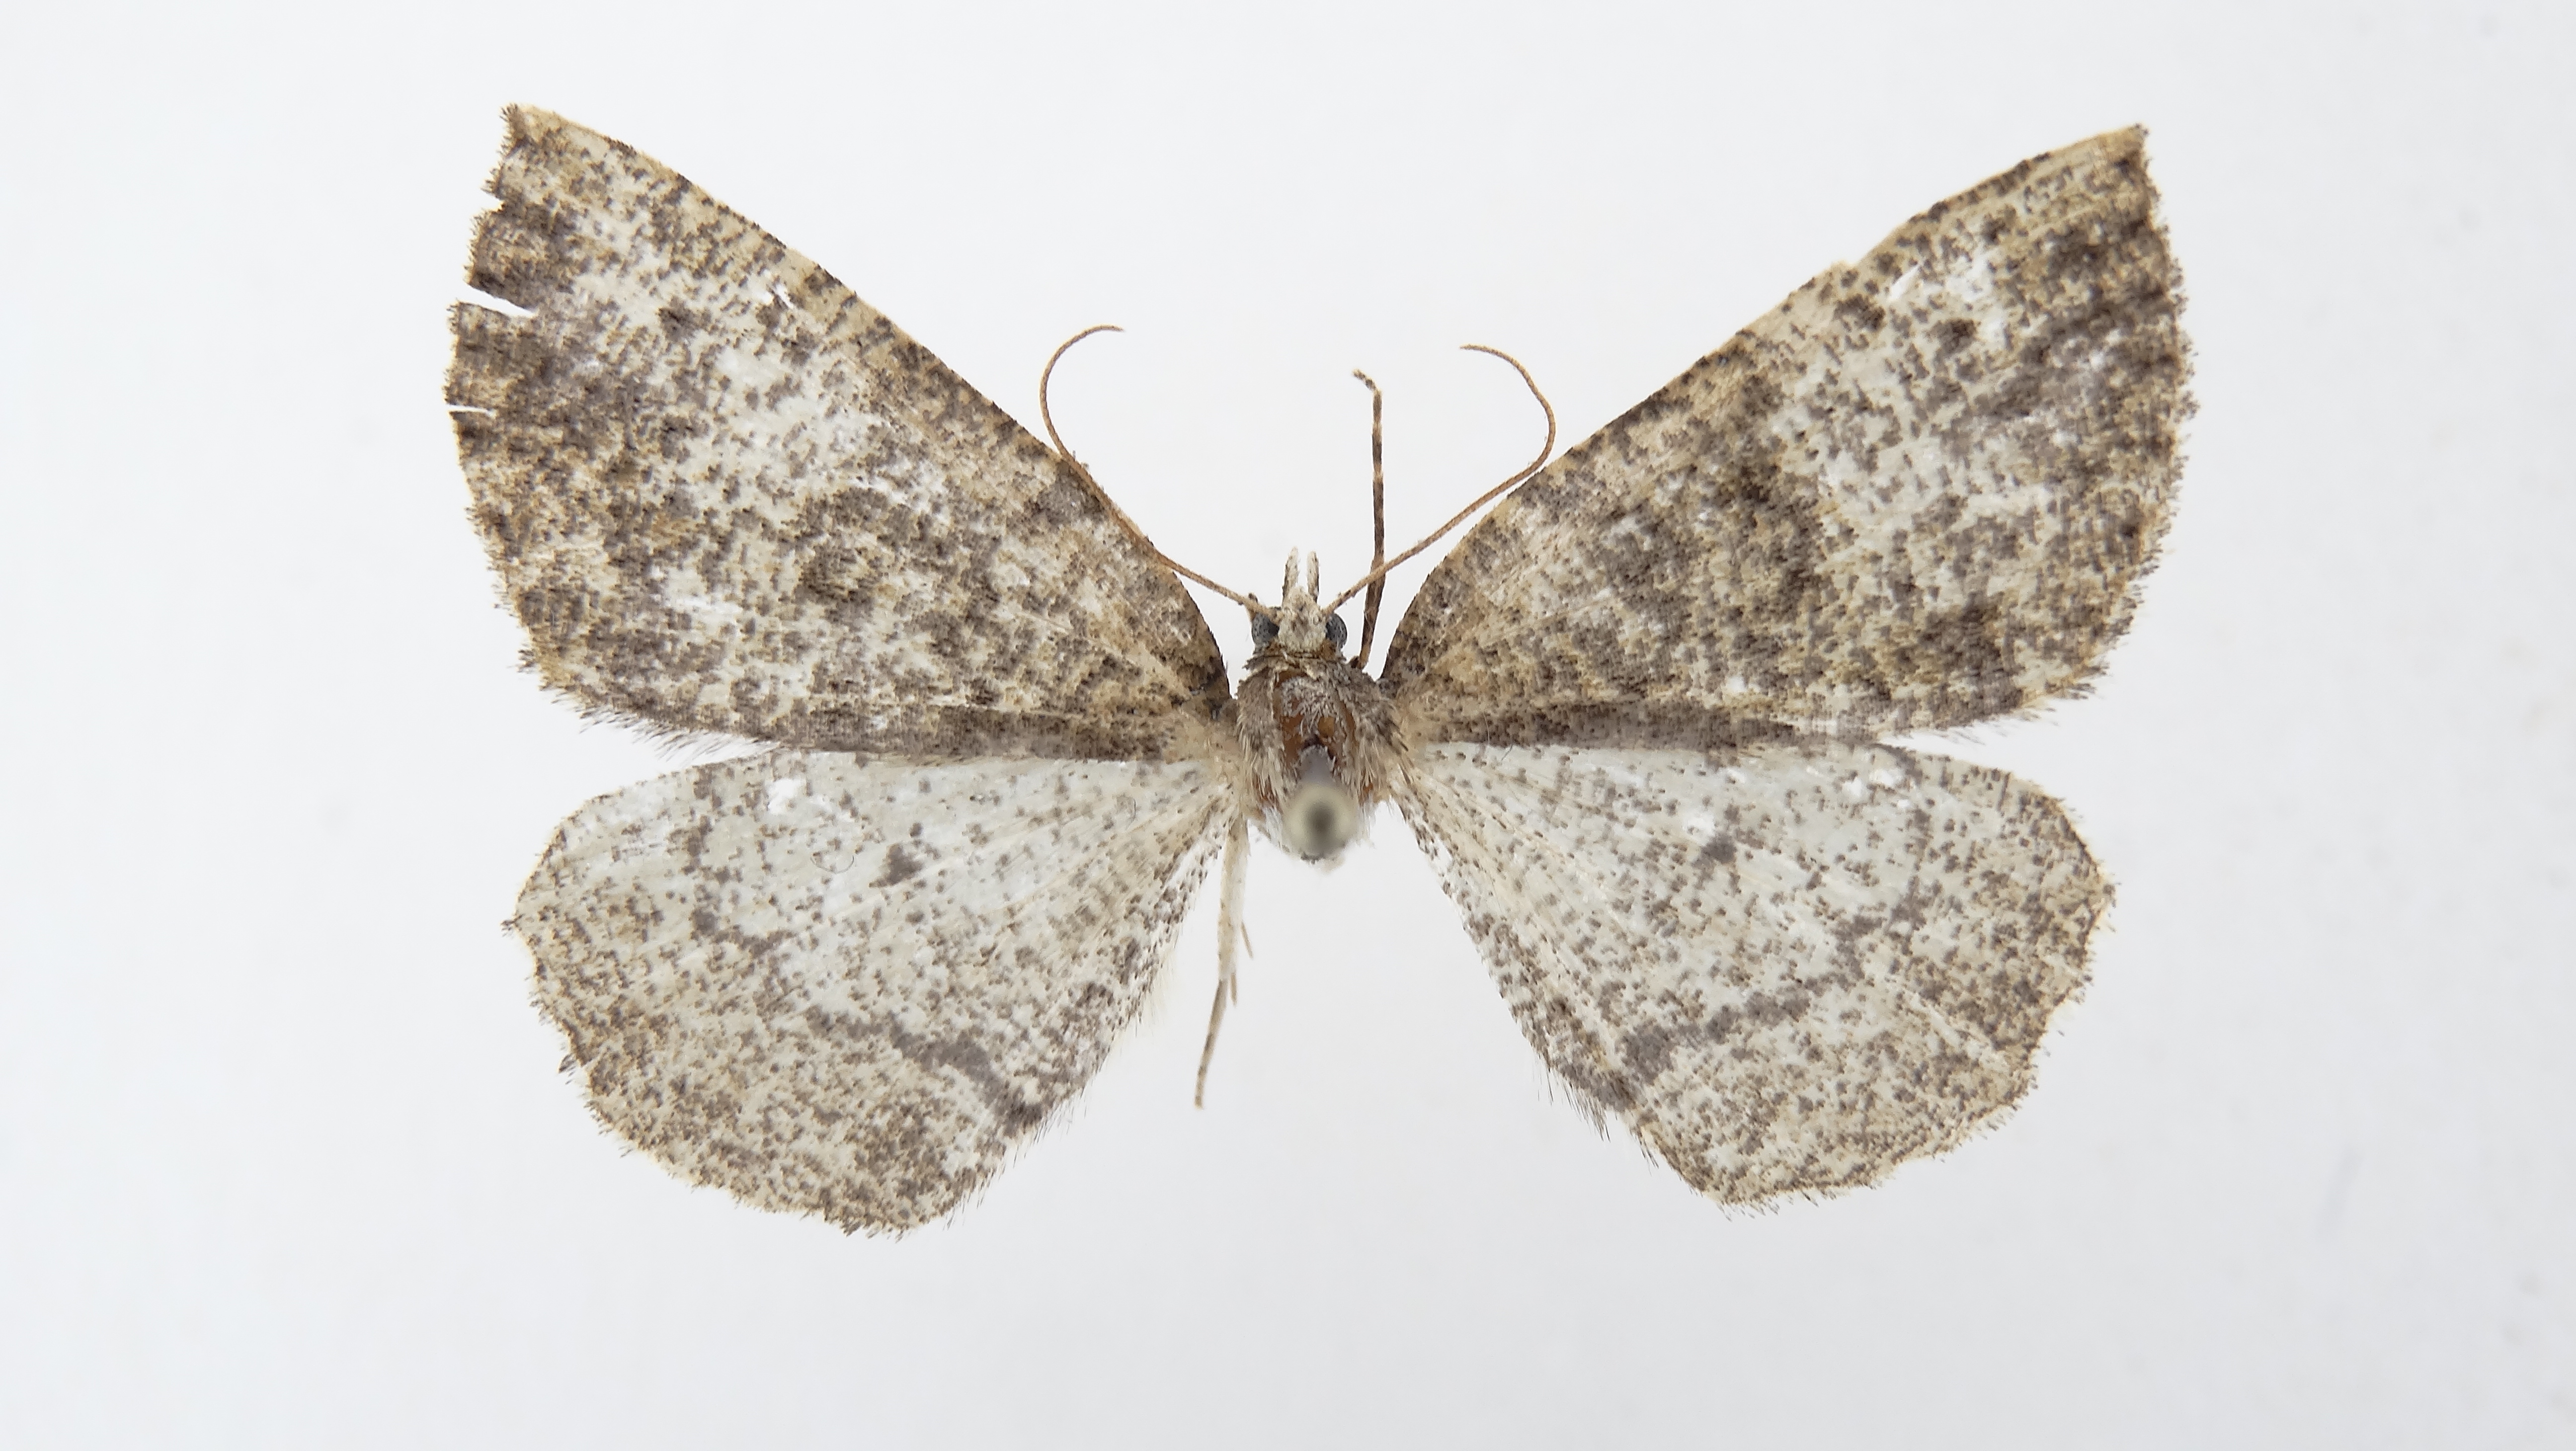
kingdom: Animalia
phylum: Arthropoda
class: Insecta
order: Lepidoptera
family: Geometridae
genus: Odontothera
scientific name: Odontothera virescens
